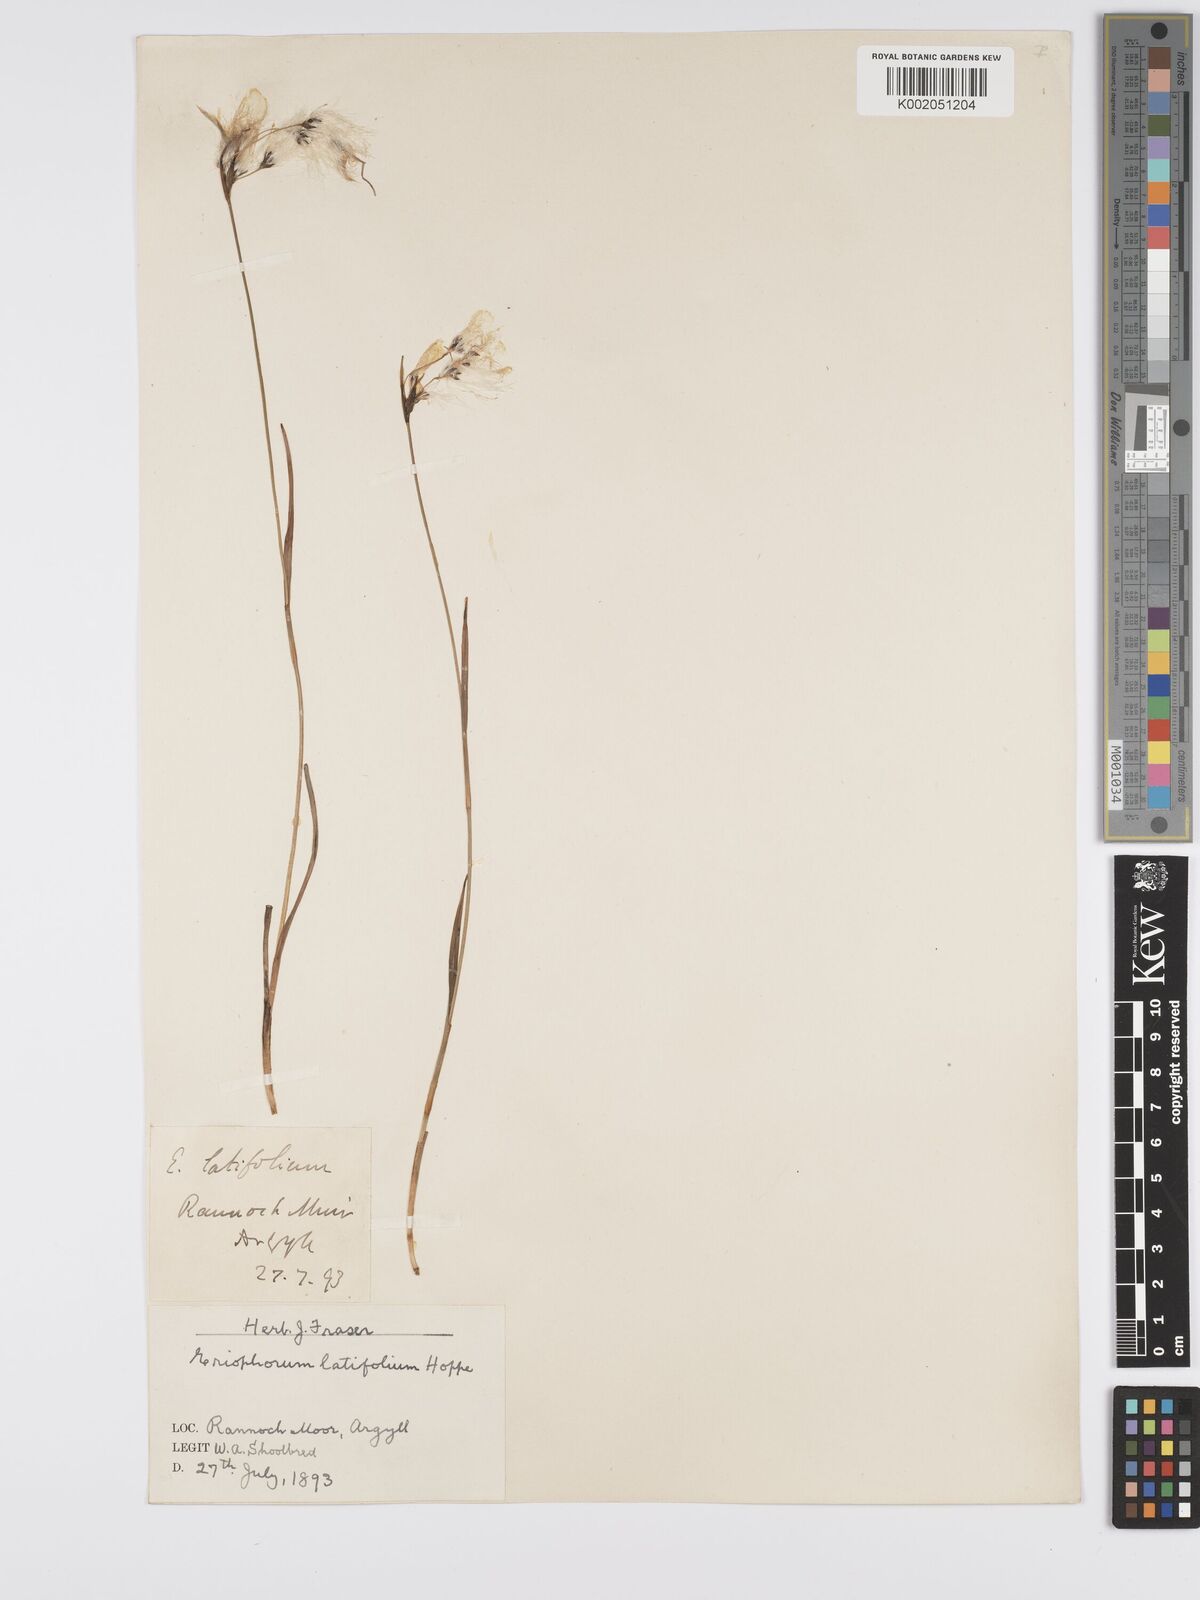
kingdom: Plantae
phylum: Tracheophyta
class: Liliopsida
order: Poales
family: Cyperaceae
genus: Eriophorum
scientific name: Eriophorum latifolium
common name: Broad-leaved cottongrass
